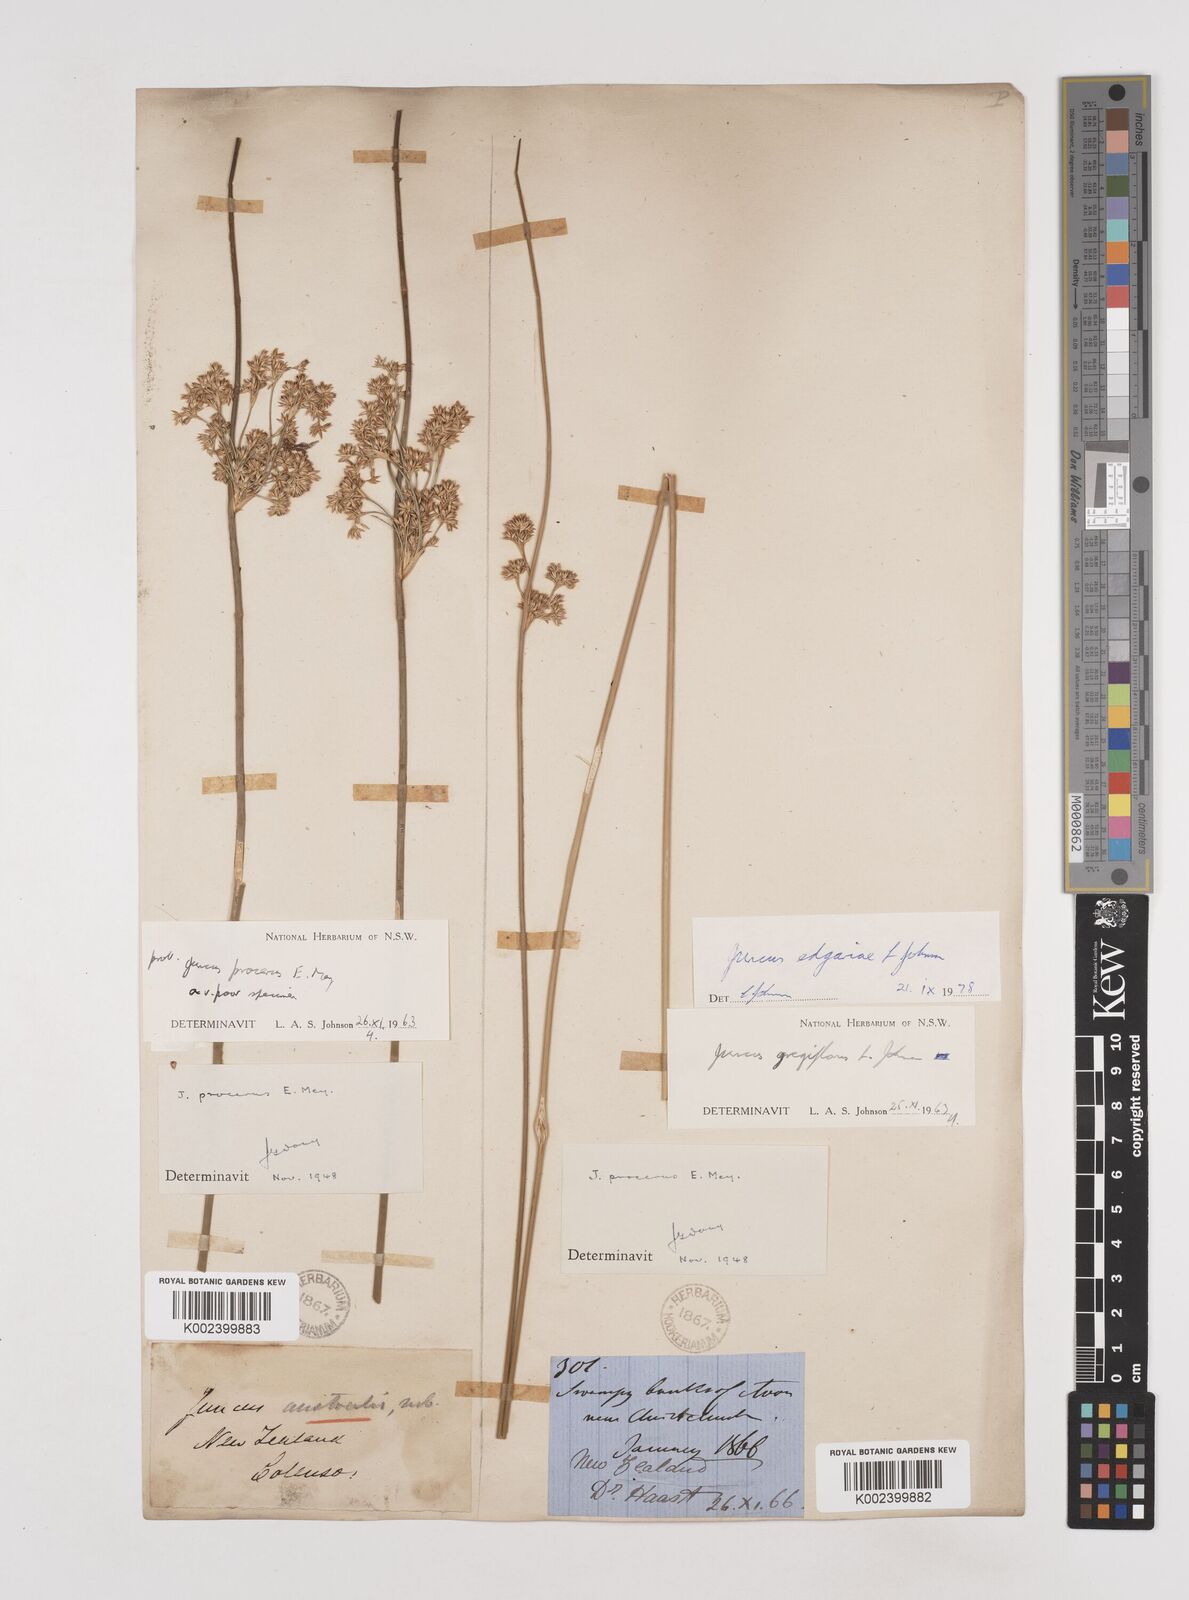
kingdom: Plantae
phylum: Tracheophyta
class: Liliopsida
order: Poales
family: Juncaceae
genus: Juncus
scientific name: Juncus gregiflorus
